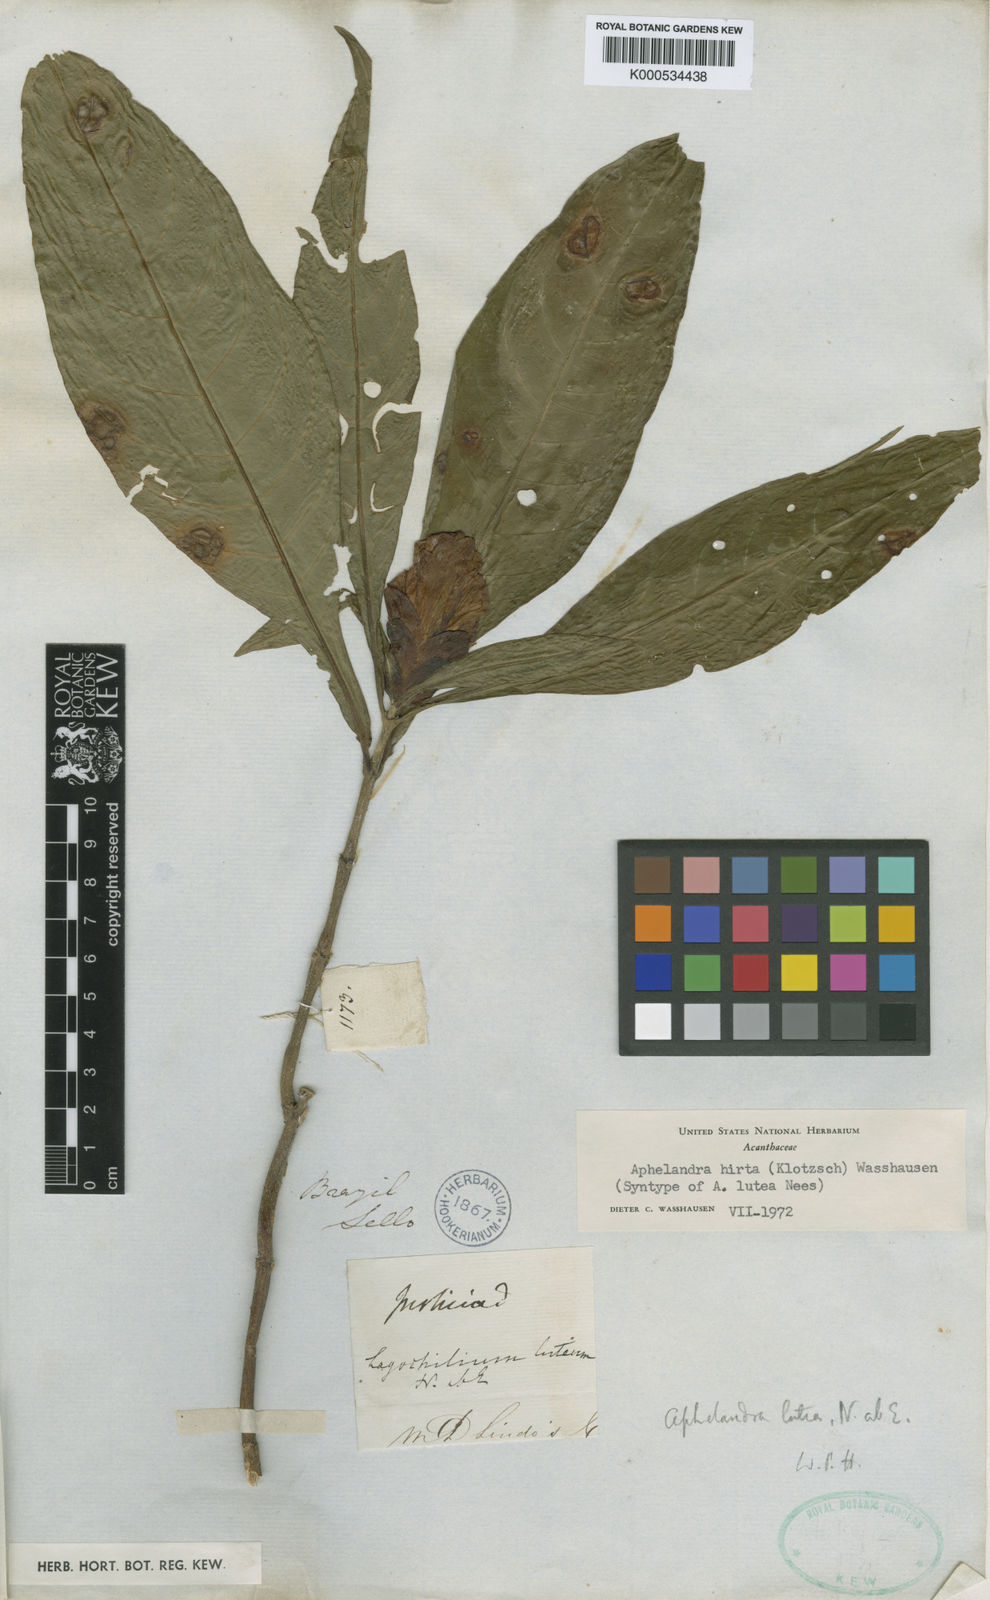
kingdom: Plantae
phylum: Tracheophyta
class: Magnoliopsida
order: Lamiales
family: Acanthaceae
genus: Aphelandra
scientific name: Aphelandra hirta
